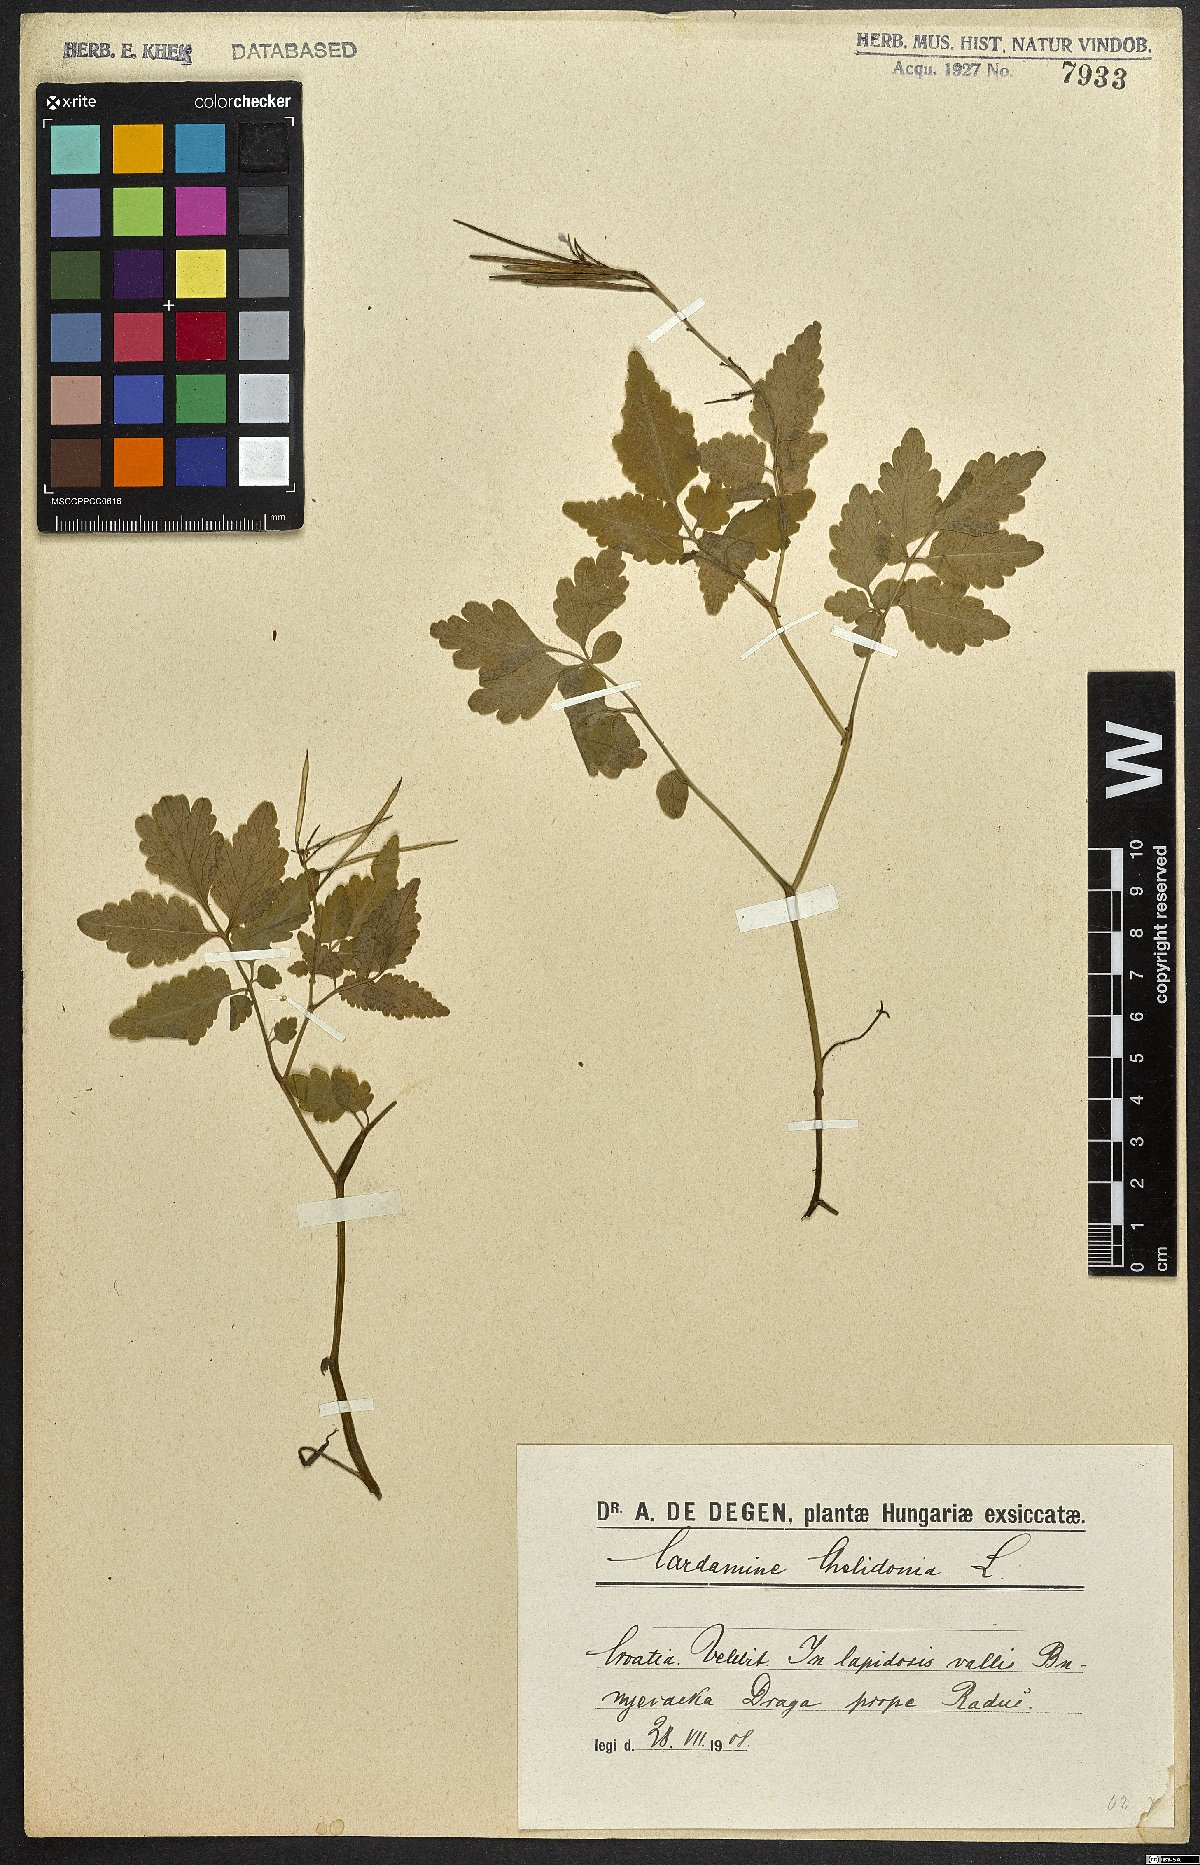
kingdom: Plantae
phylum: Tracheophyta
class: Magnoliopsida
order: Brassicales
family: Brassicaceae
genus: Cardamine
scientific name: Cardamine chelidonia
